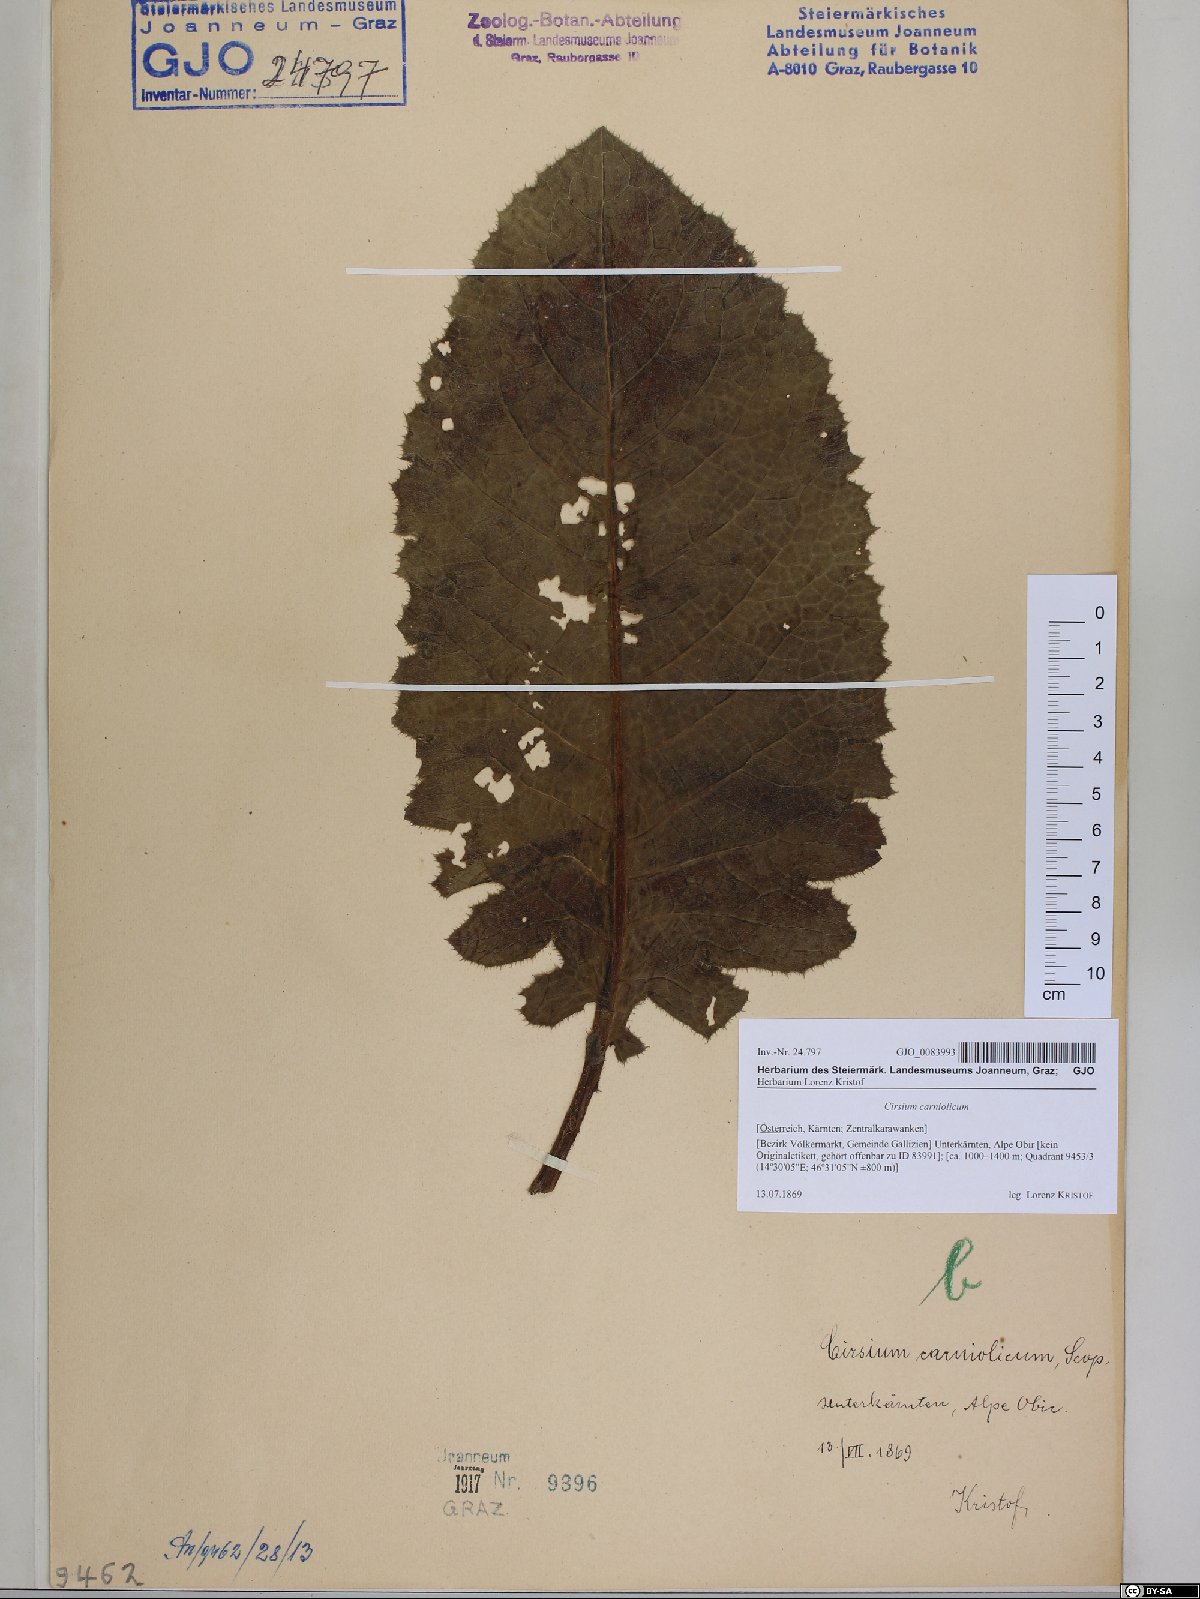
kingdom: Plantae
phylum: Tracheophyta
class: Magnoliopsida
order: Asterales
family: Asteraceae
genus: Cirsium
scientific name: Cirsium carniolicum
